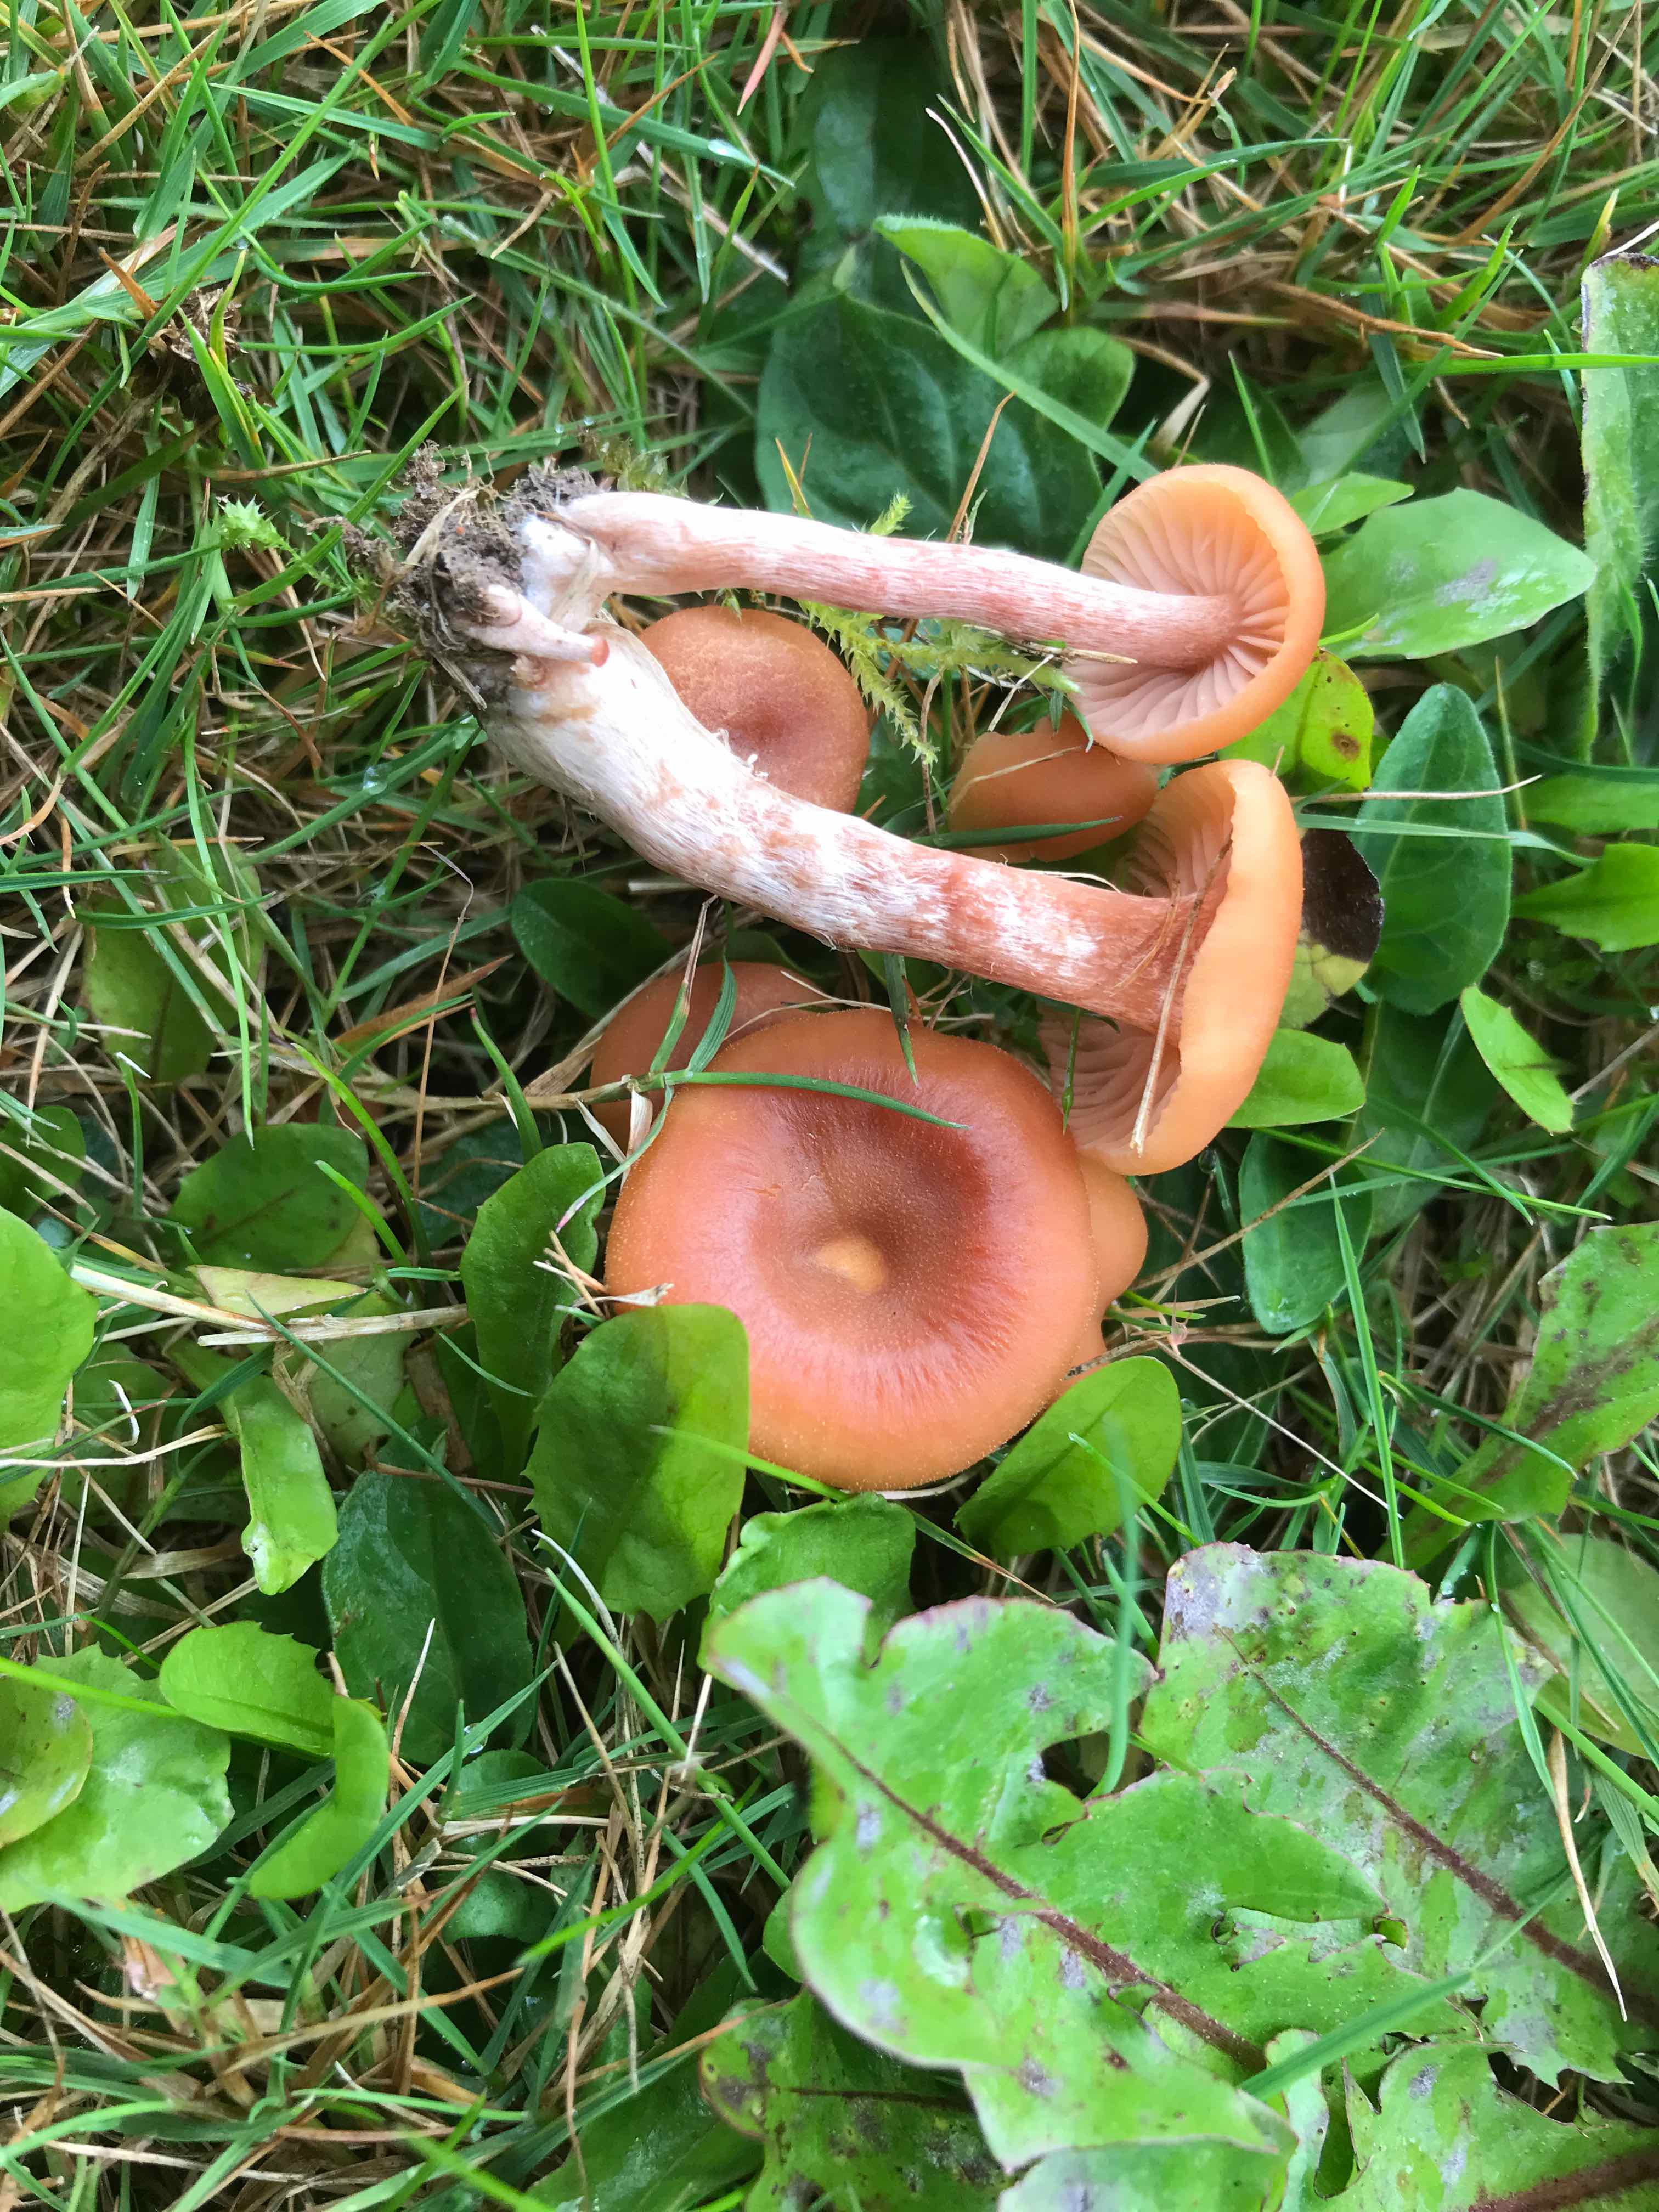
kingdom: Fungi
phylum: Basidiomycota
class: Agaricomycetes
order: Agaricales
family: Hydnangiaceae
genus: Laccaria
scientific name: Laccaria laccata
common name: rød ametysthat
